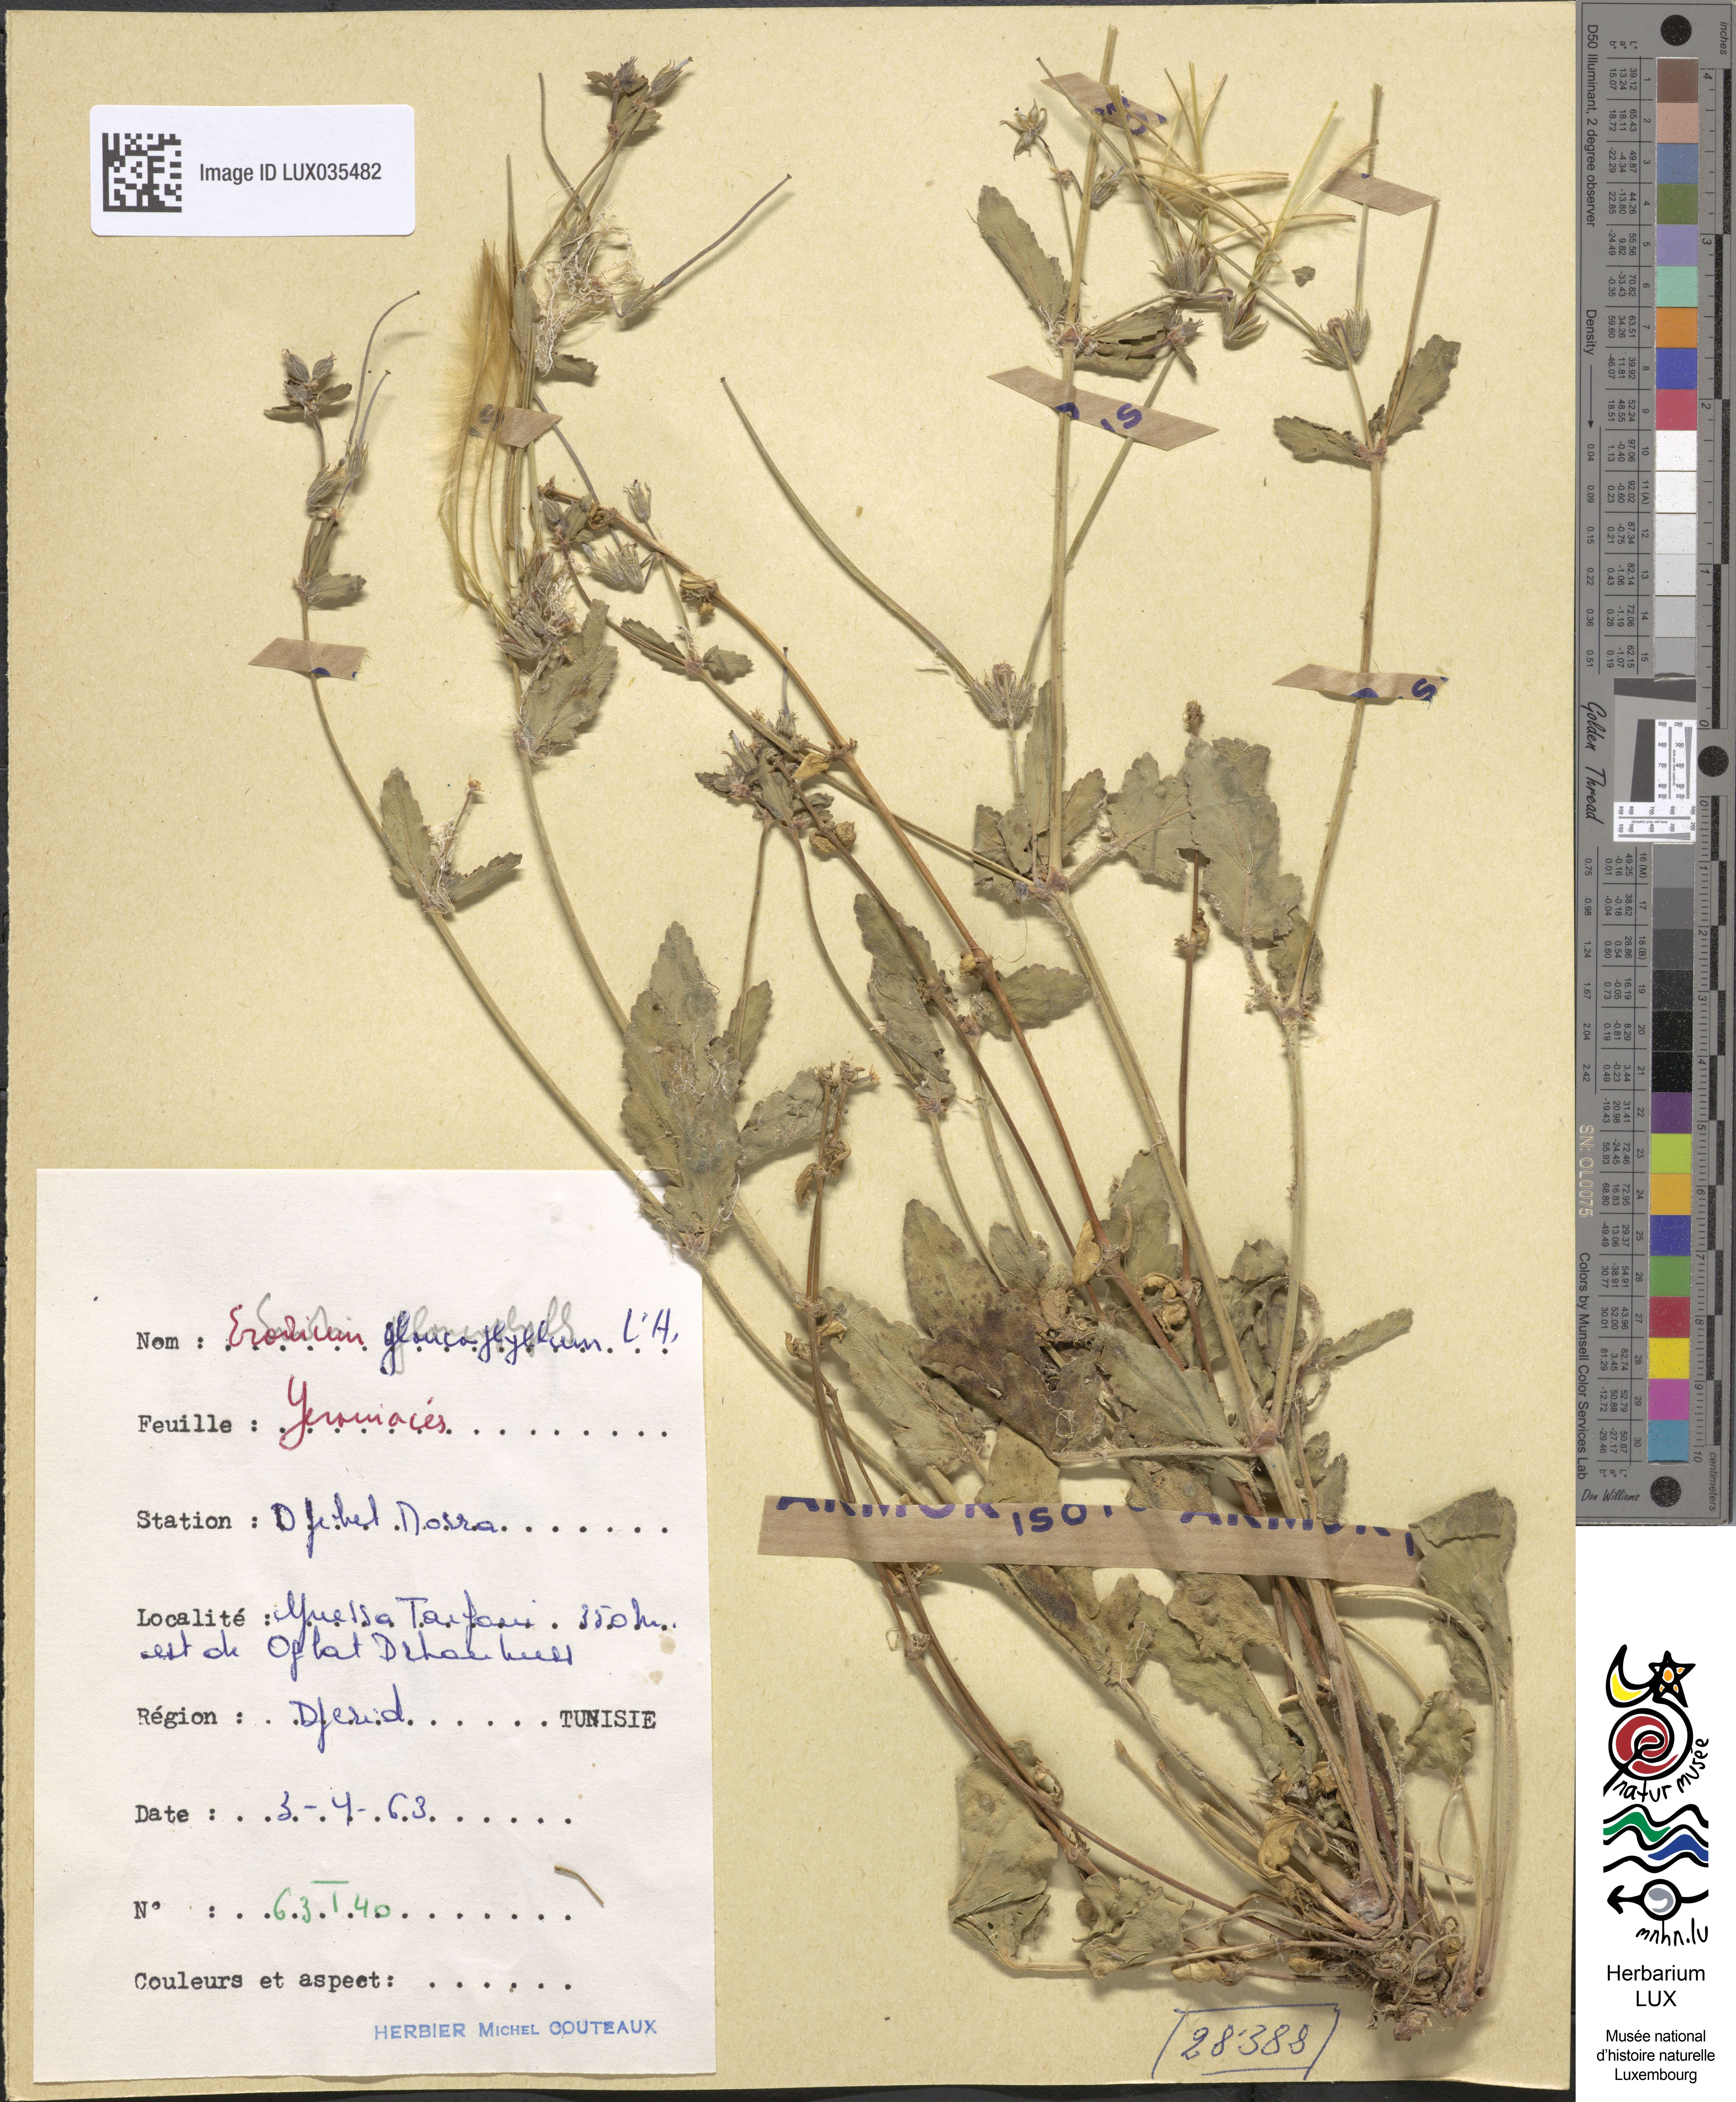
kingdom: Plantae
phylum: Tracheophyta
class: Magnoliopsida
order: Geraniales
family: Geraniaceae
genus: Erodium
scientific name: Erodium glaucophyllum
